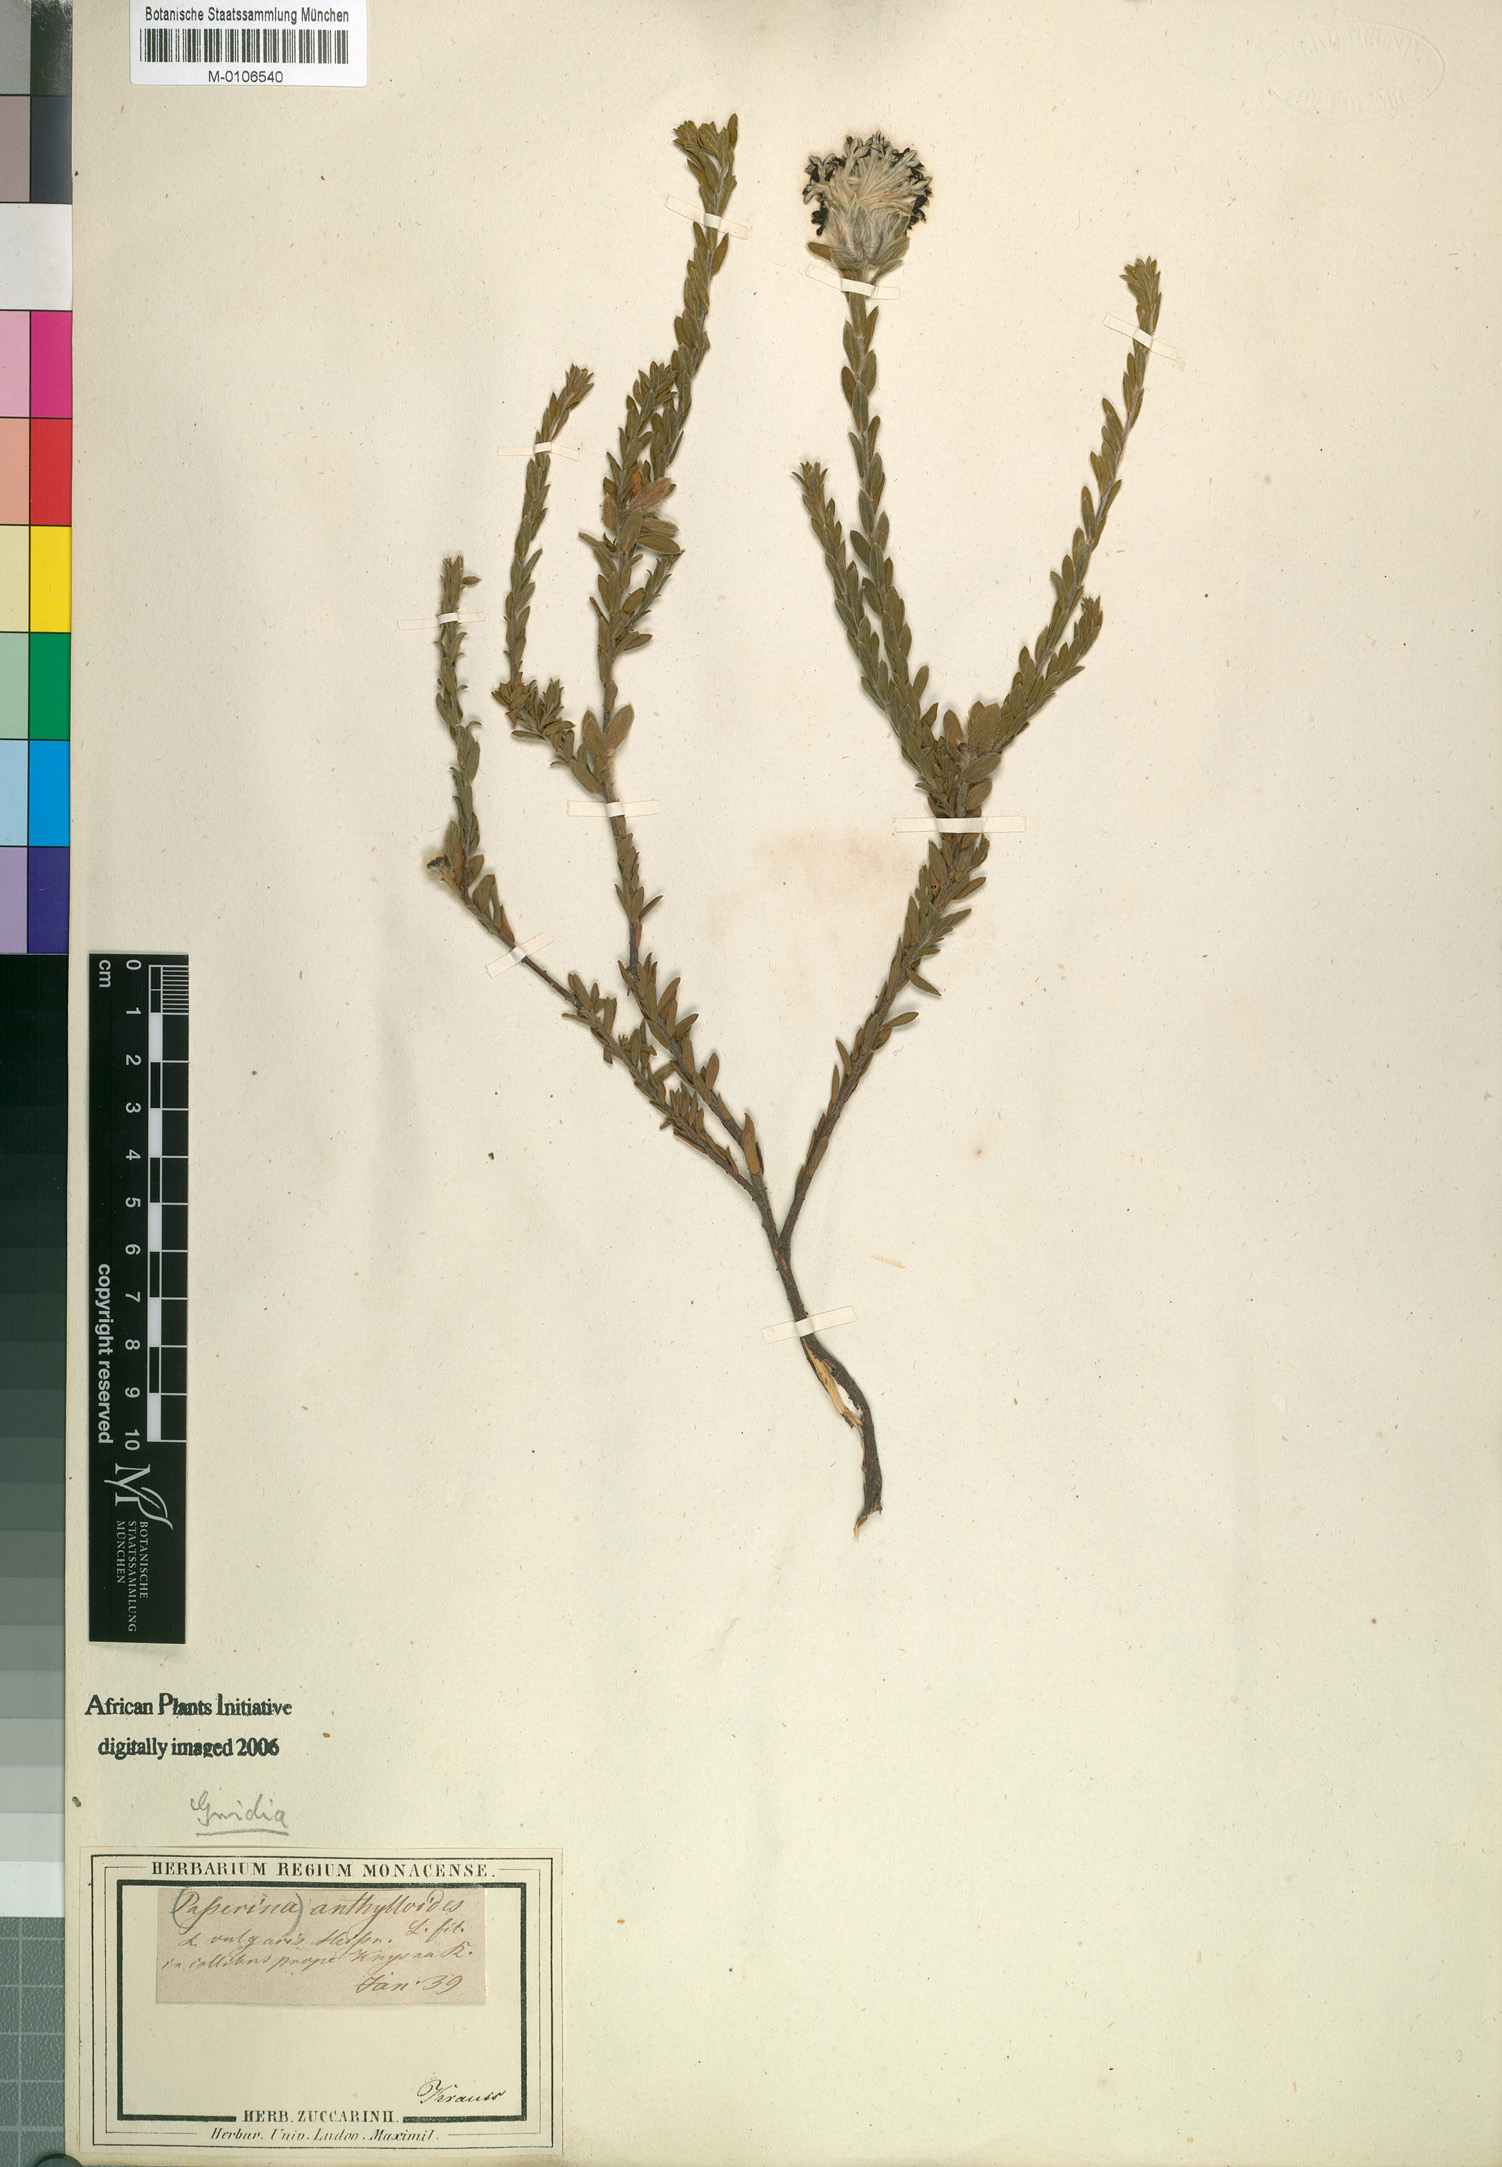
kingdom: Plantae
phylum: Tracheophyta
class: Magnoliopsida
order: Malvales
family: Thymelaeaceae
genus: Gnidia
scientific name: Gnidia anthylloides
